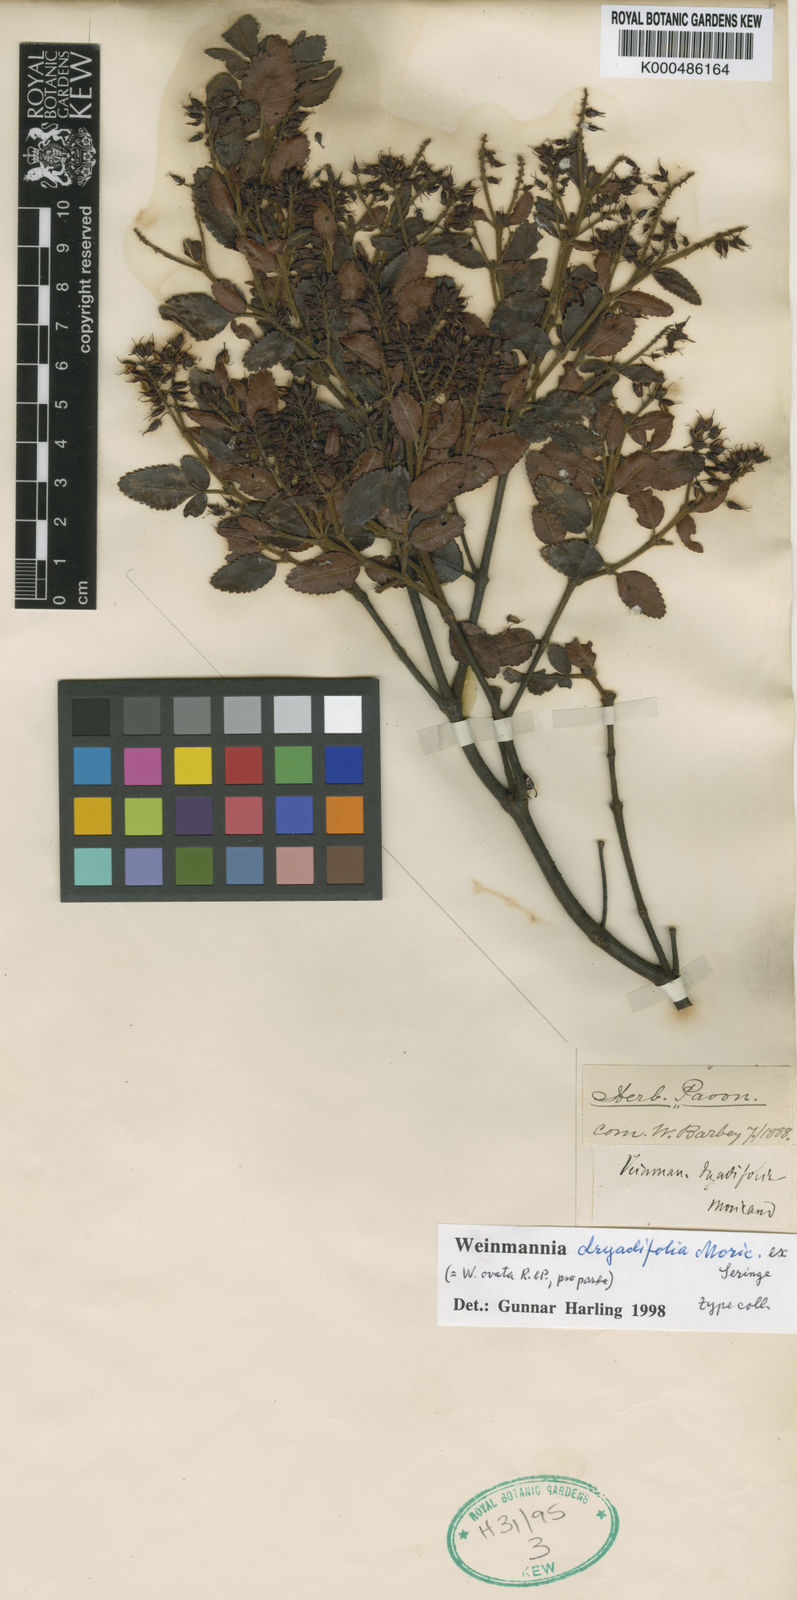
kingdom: Plantae
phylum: Tracheophyta
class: Magnoliopsida
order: Oxalidales
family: Cunoniaceae
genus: Weinmannia
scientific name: Weinmannia auriculata
